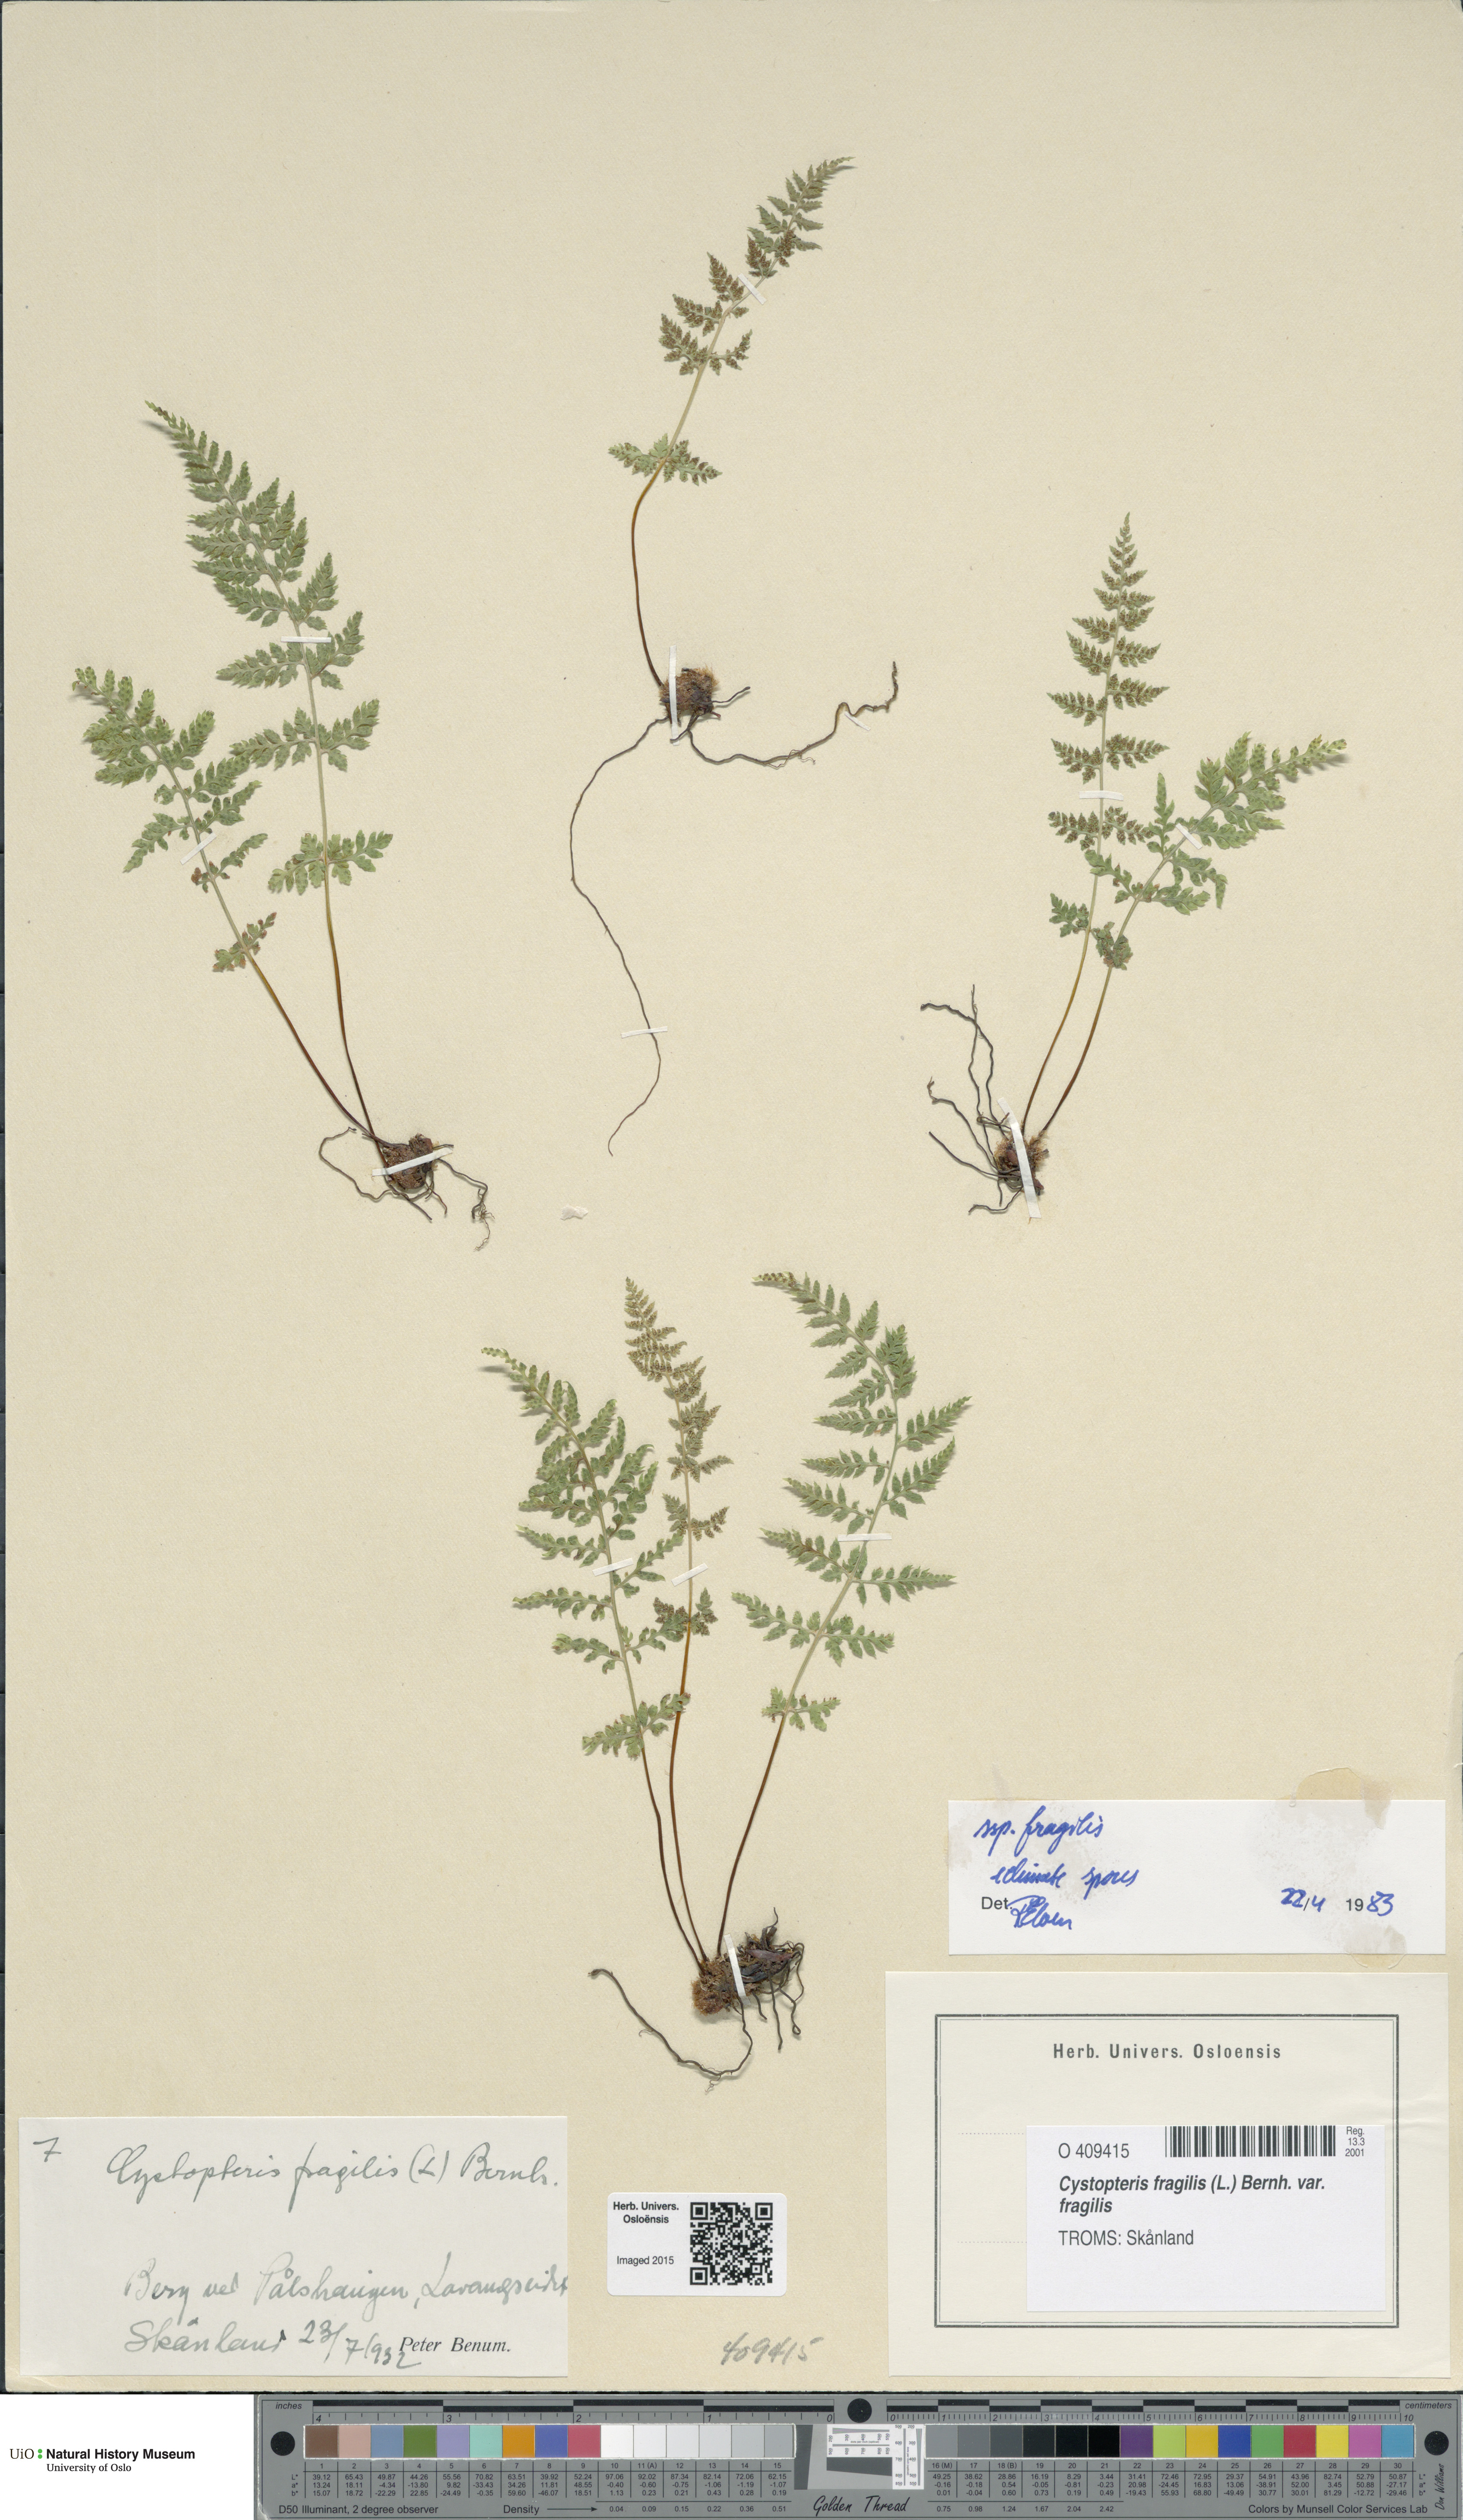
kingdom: Plantae
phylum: Tracheophyta
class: Polypodiopsida
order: Polypodiales
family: Cystopteridaceae
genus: Cystopteris
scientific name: Cystopteris fragilis
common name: Brittle bladder fern
